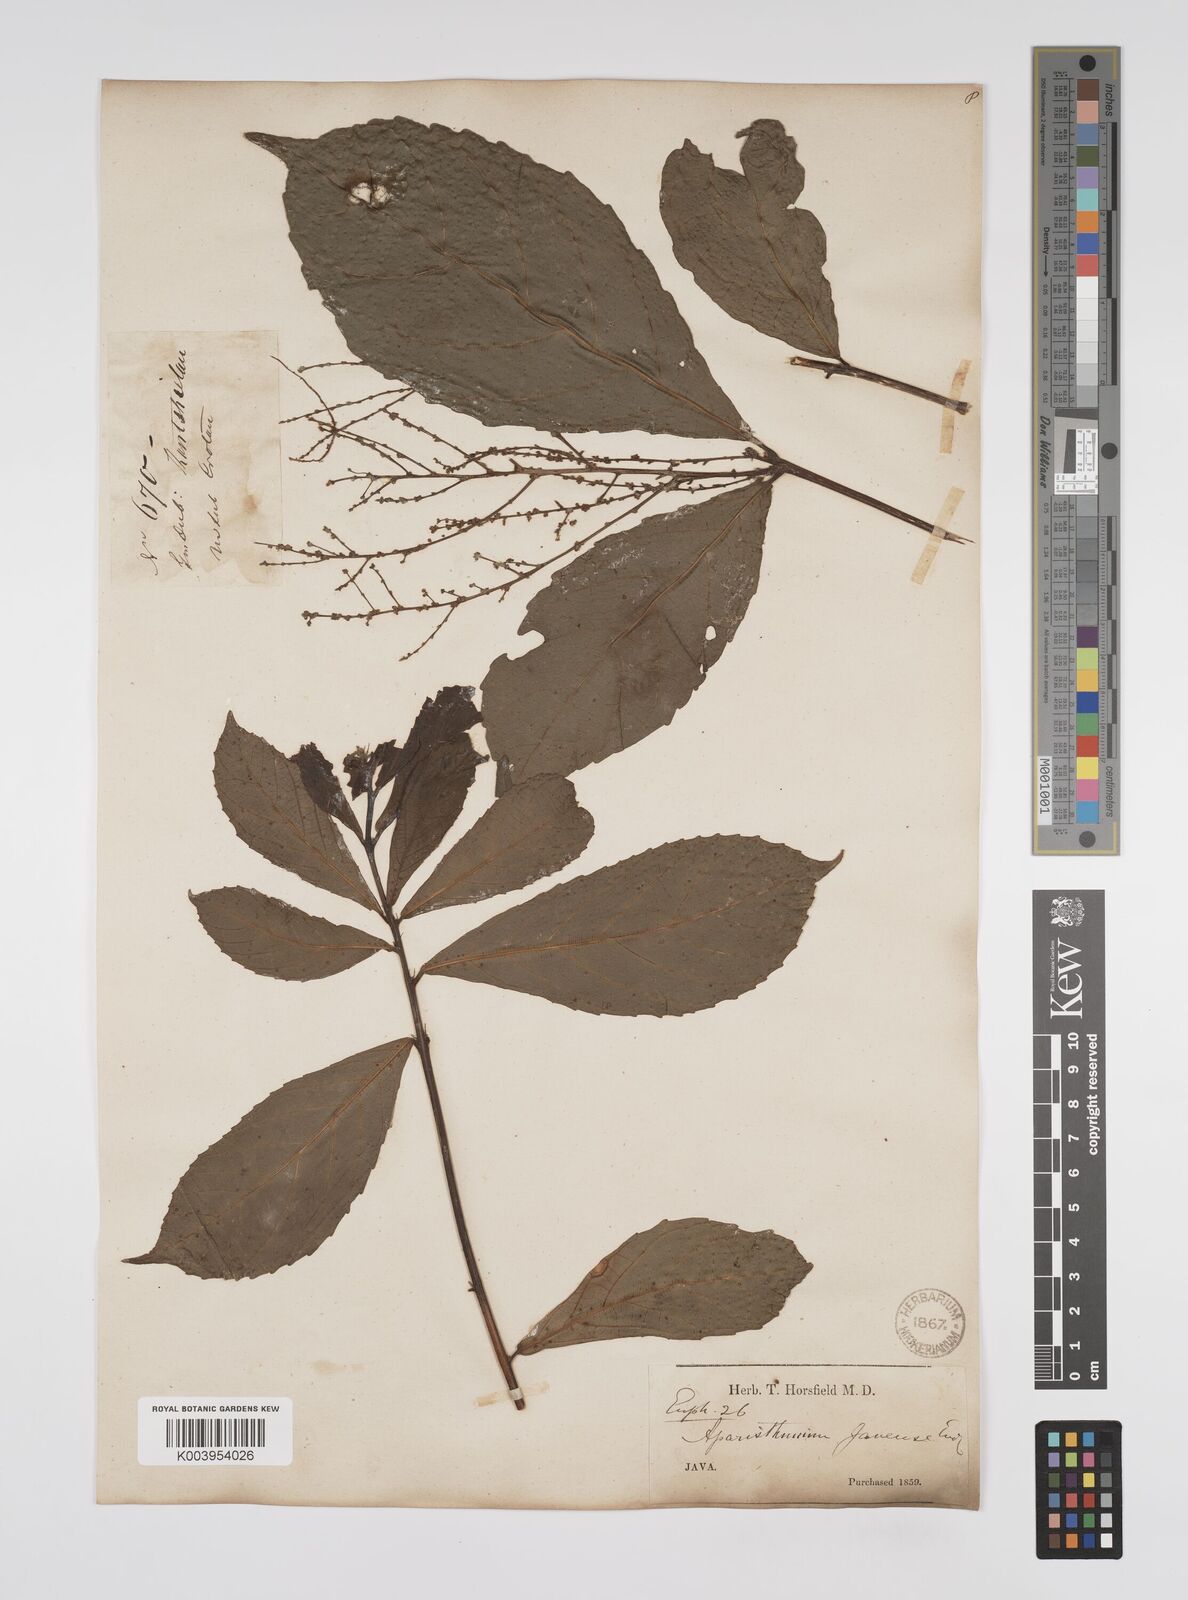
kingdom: Plantae
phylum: Tracheophyta
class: Magnoliopsida
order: Malpighiales
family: Euphorbiaceae
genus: Alchornea
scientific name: Alchornea rugosa
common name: Alchorntree
